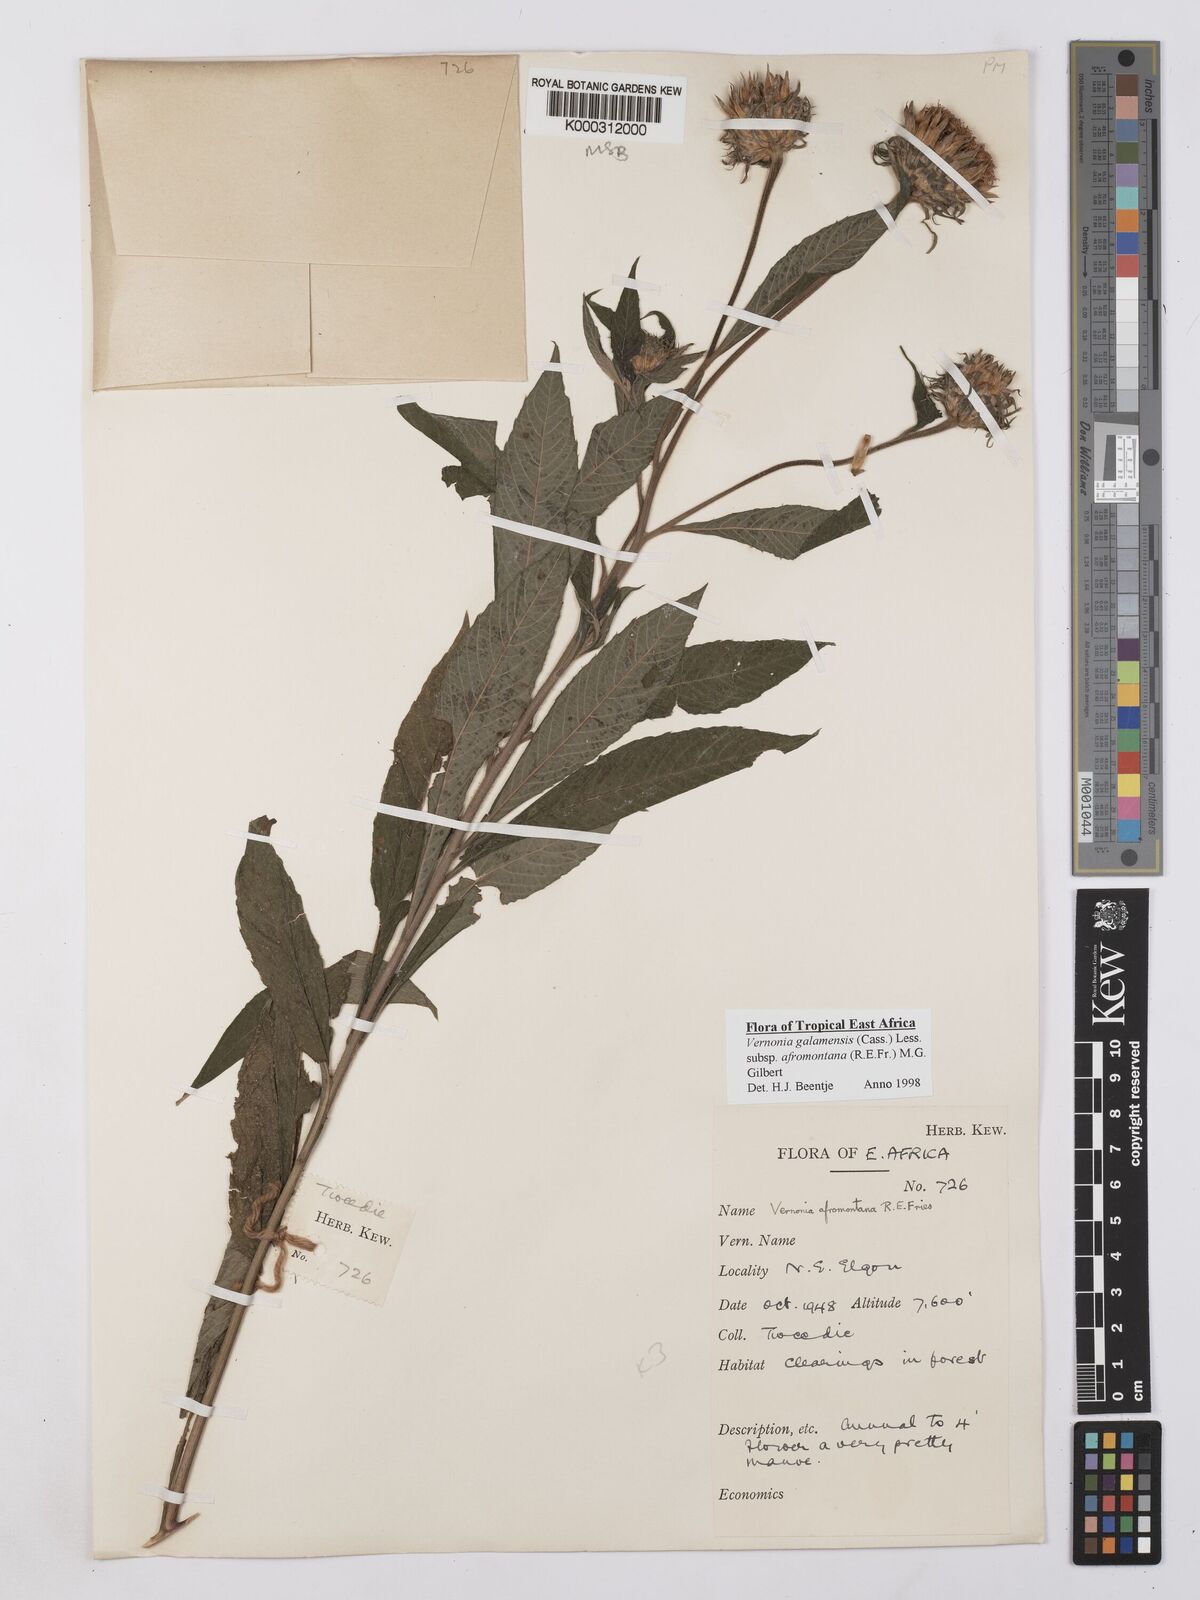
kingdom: Plantae
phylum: Tracheophyta
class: Magnoliopsida
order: Asterales
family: Asteraceae
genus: Vernonia
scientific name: Vernonia galamensis
